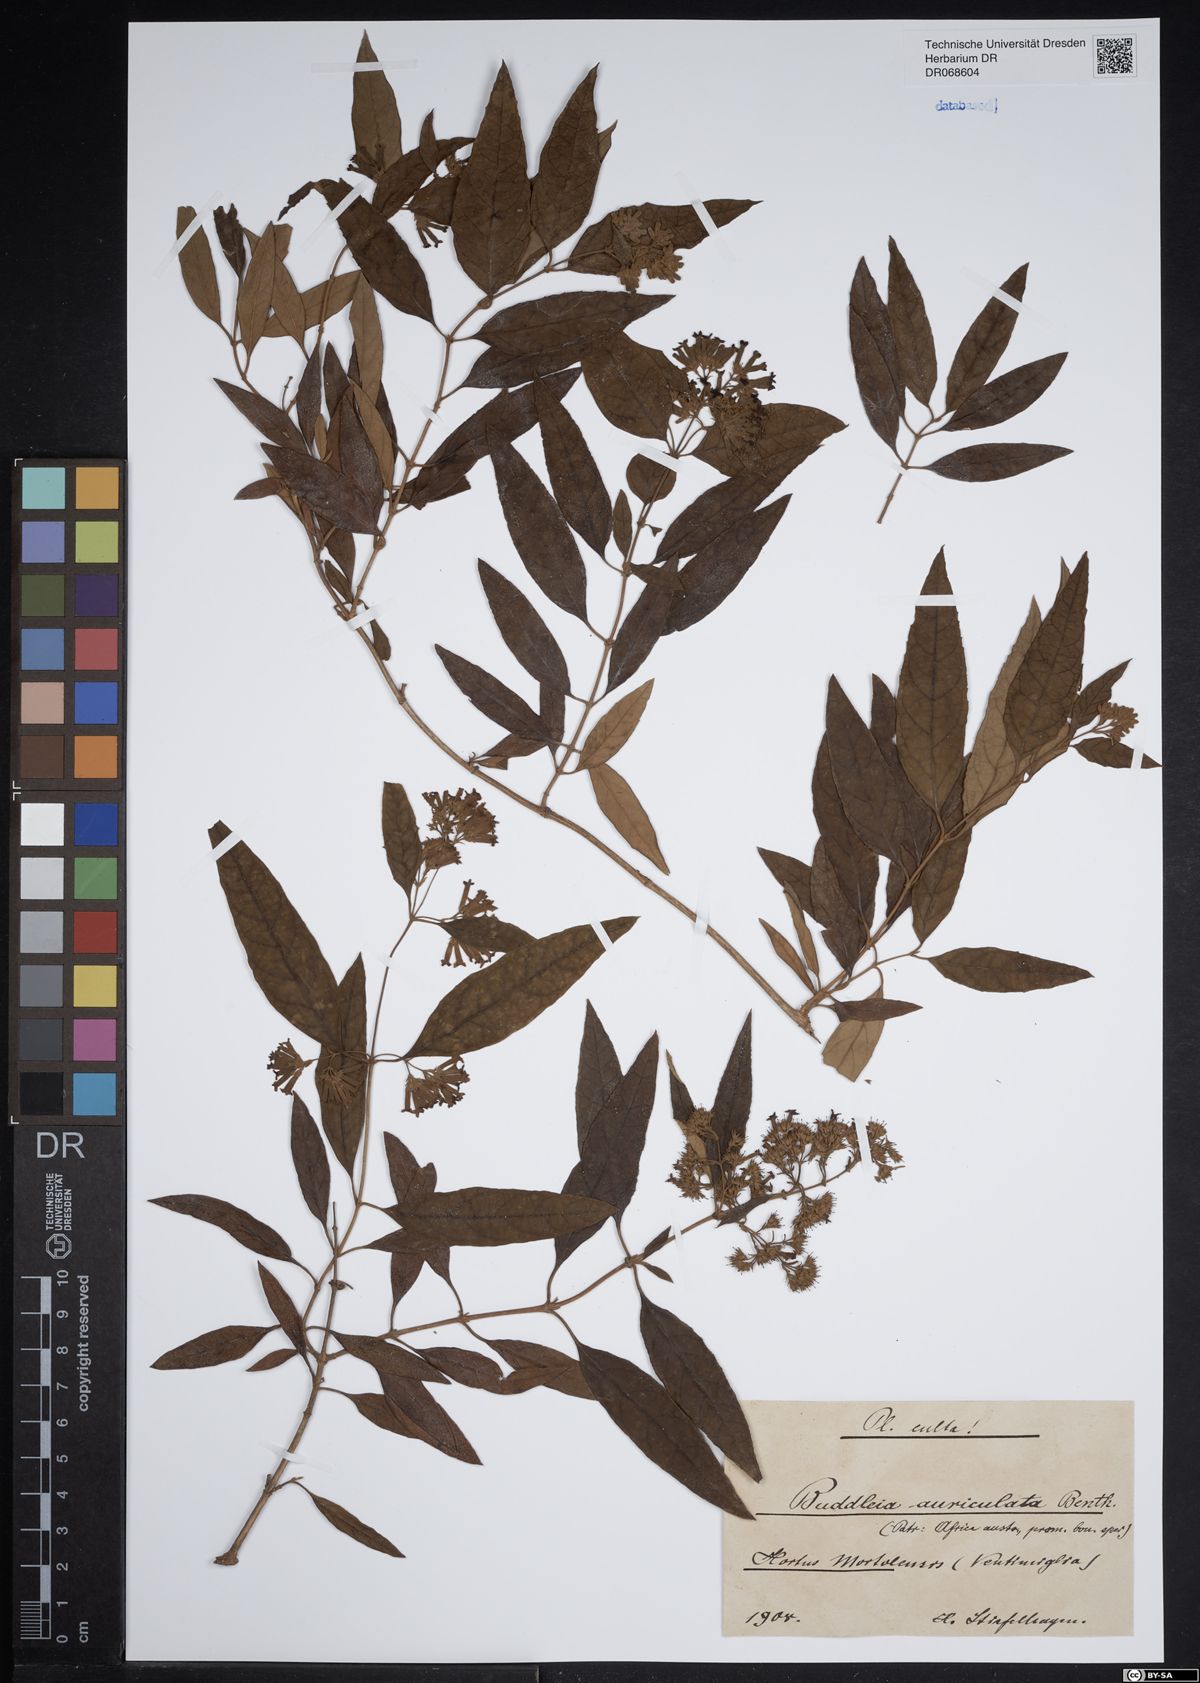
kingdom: Plantae
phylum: Tracheophyta
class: Magnoliopsida
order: Lamiales
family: Scrophulariaceae
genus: Buddleja
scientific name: Buddleja auriculata
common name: Weeping sagewood
